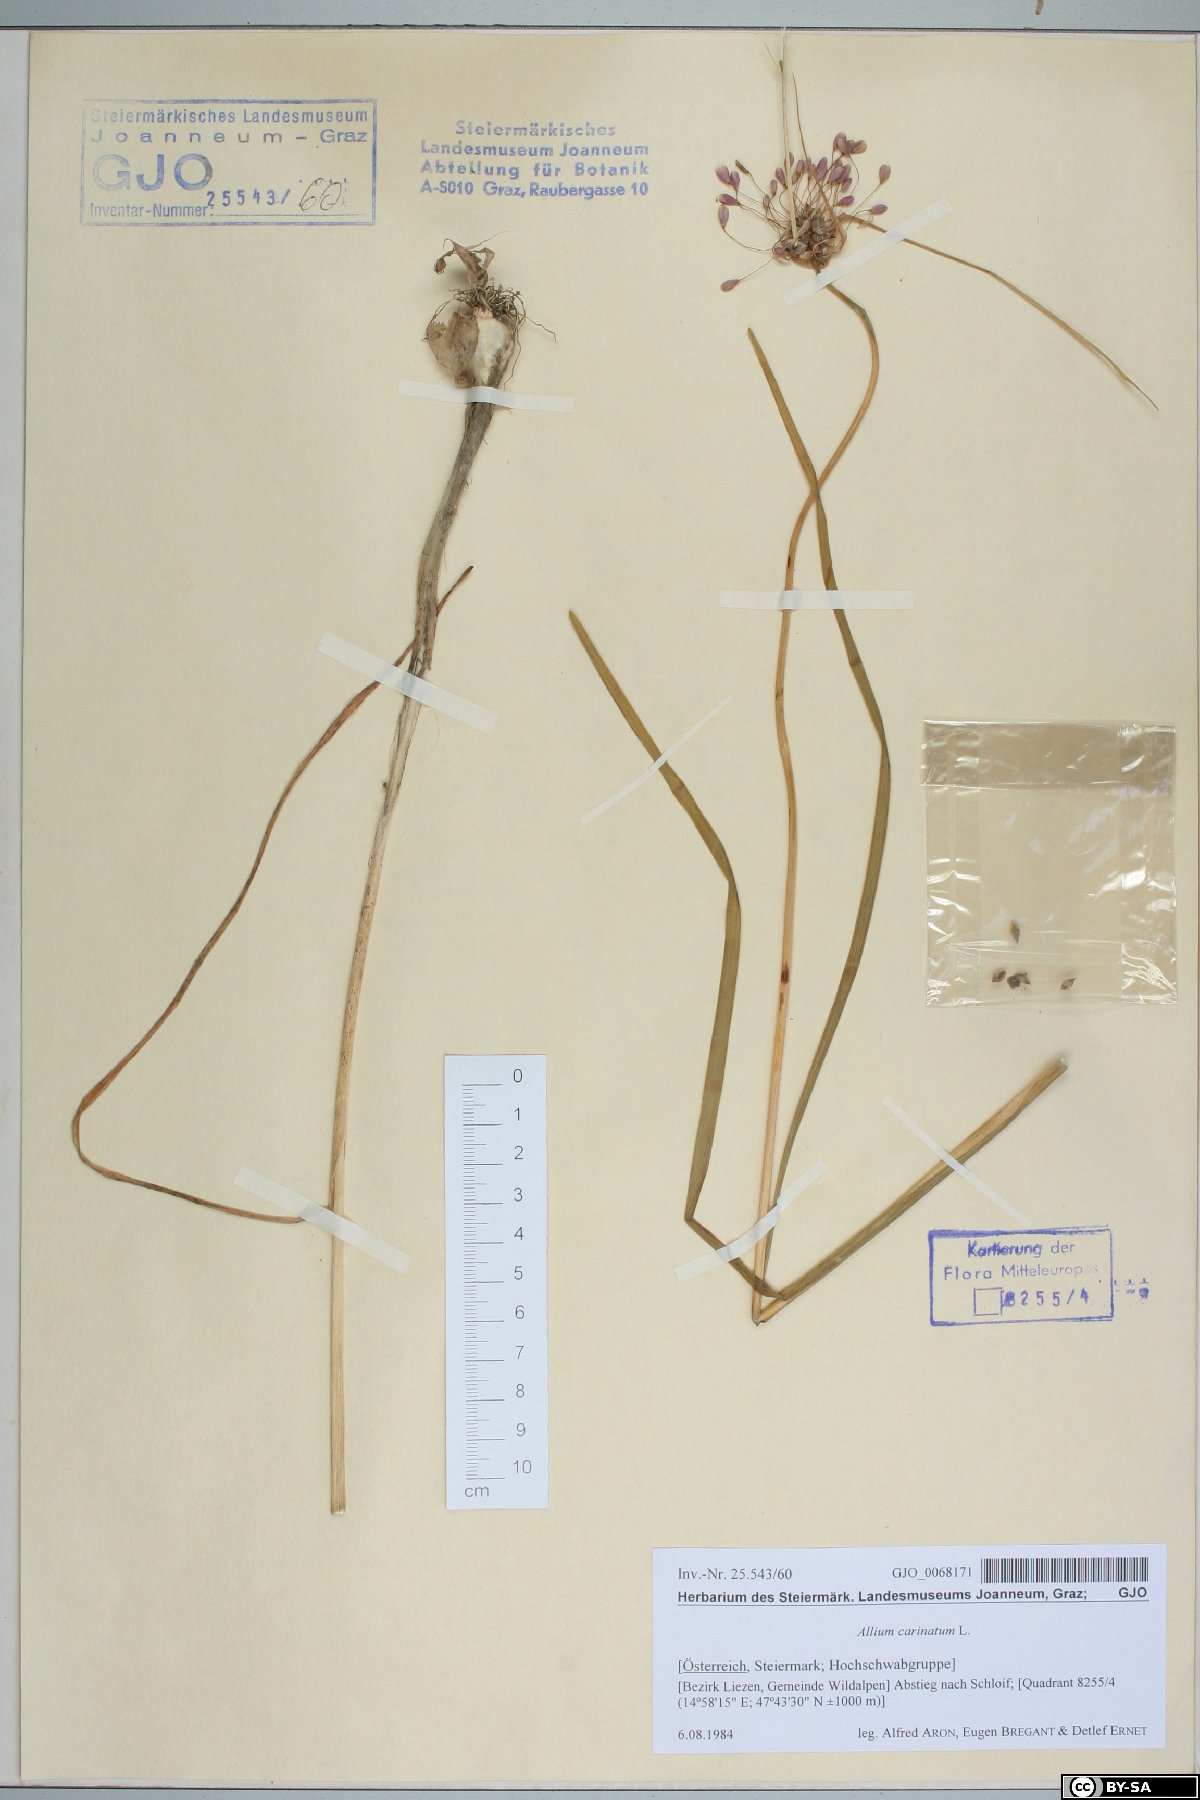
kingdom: Plantae
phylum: Tracheophyta
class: Liliopsida
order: Asparagales
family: Amaryllidaceae
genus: Allium
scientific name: Allium carinatum
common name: Keeled garlic
